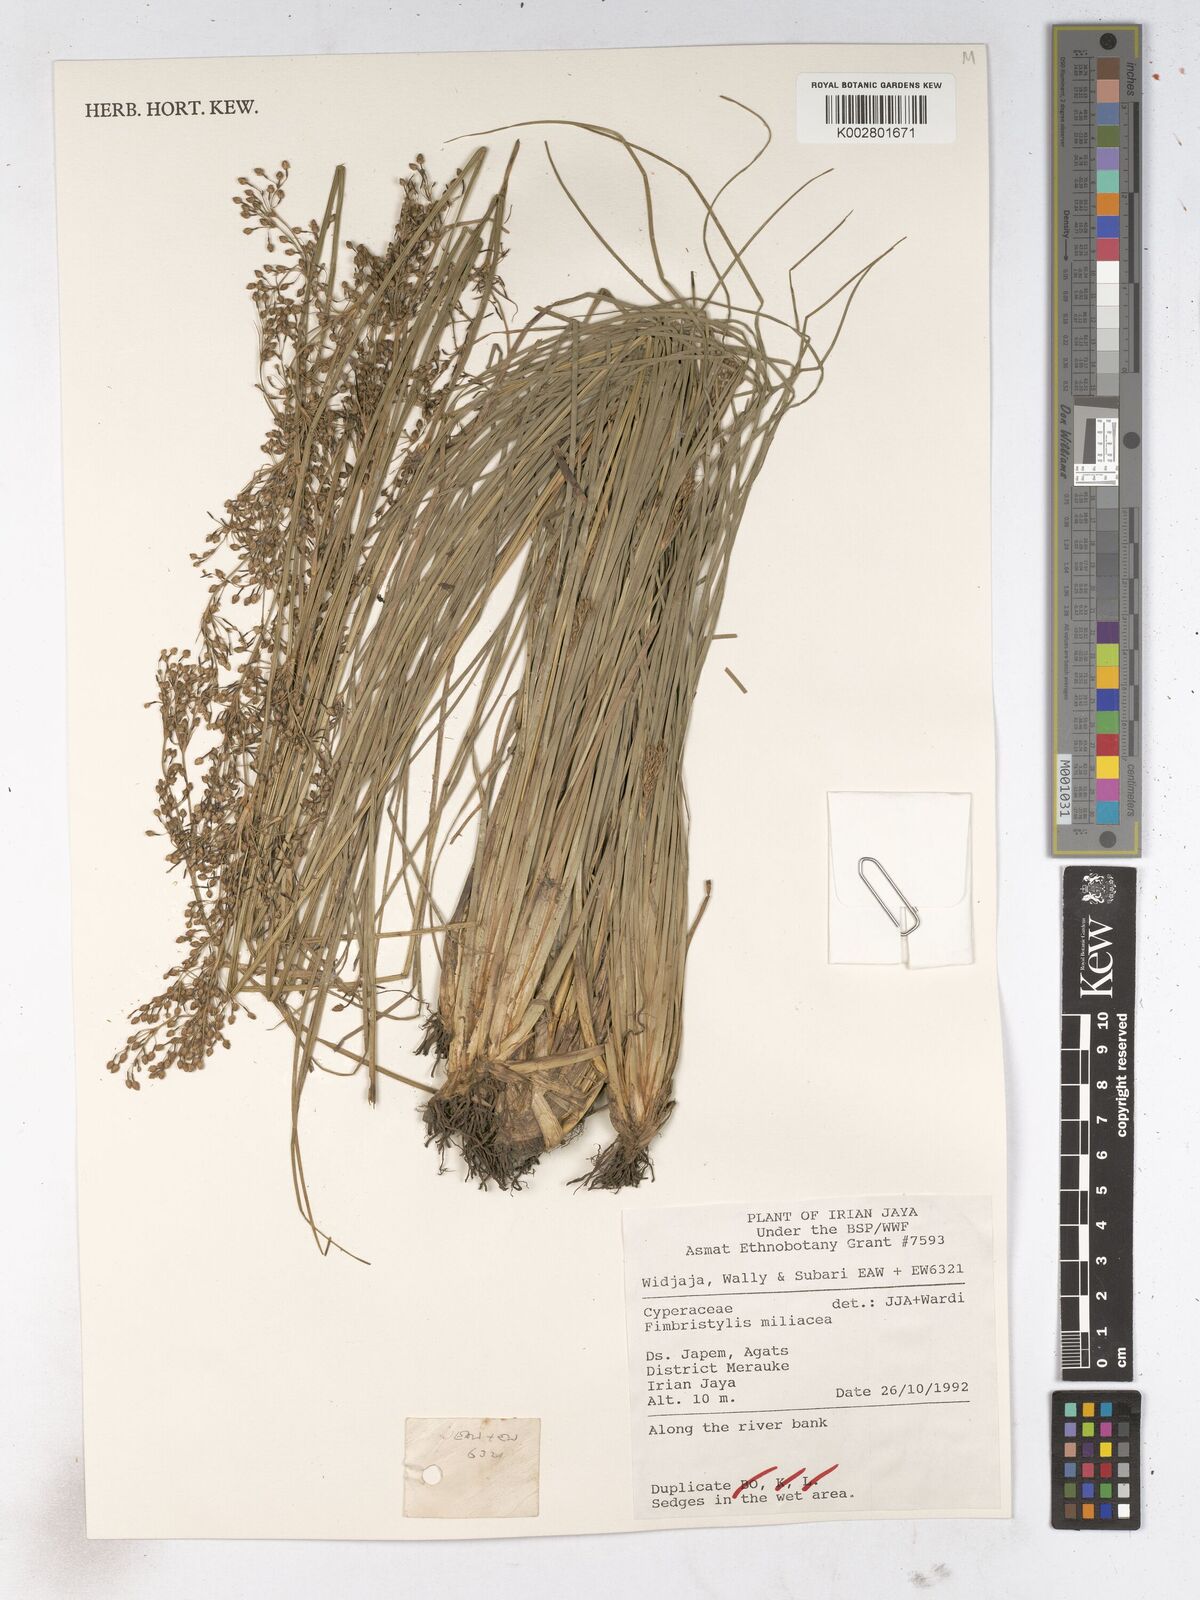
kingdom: Plantae
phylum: Tracheophyta
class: Liliopsida
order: Poales
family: Cyperaceae
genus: Fimbristylis
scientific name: Fimbristylis quinquangularis
